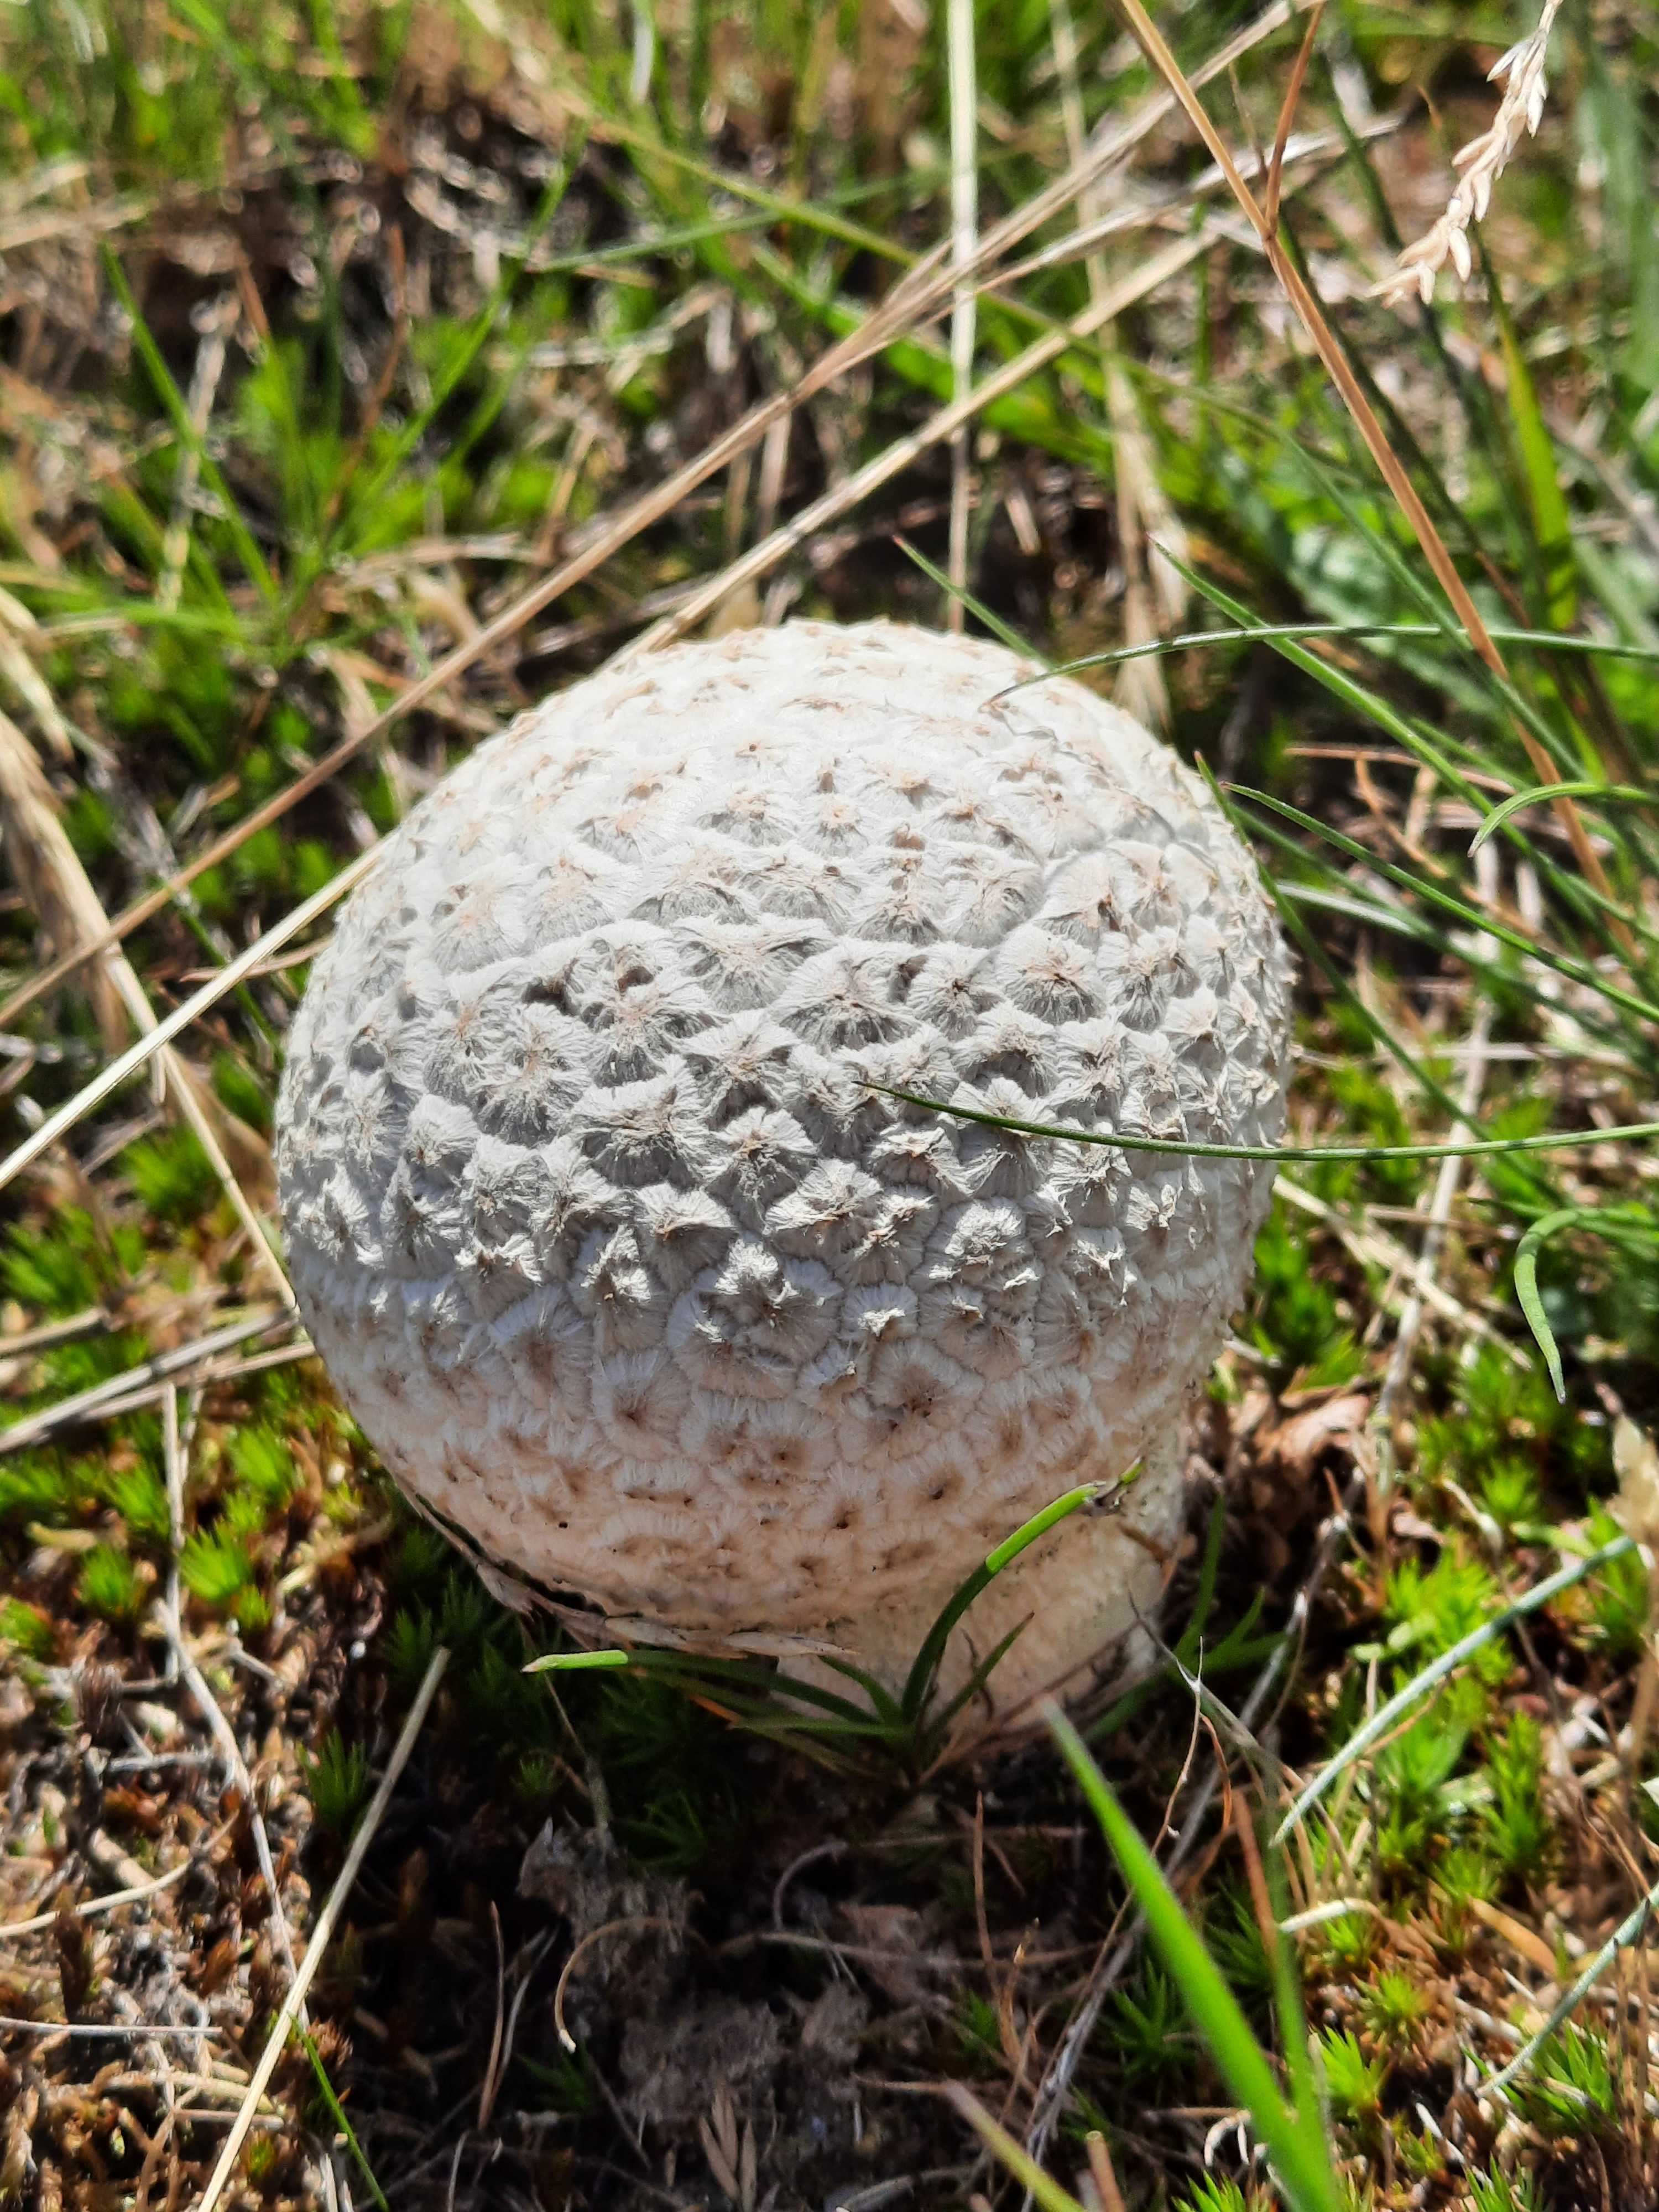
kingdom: Fungi
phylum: Basidiomycota
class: Agaricomycetes
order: Agaricales
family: Lycoperdaceae
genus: Bovistella
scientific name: Bovistella utriformis
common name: skællet støvbold
